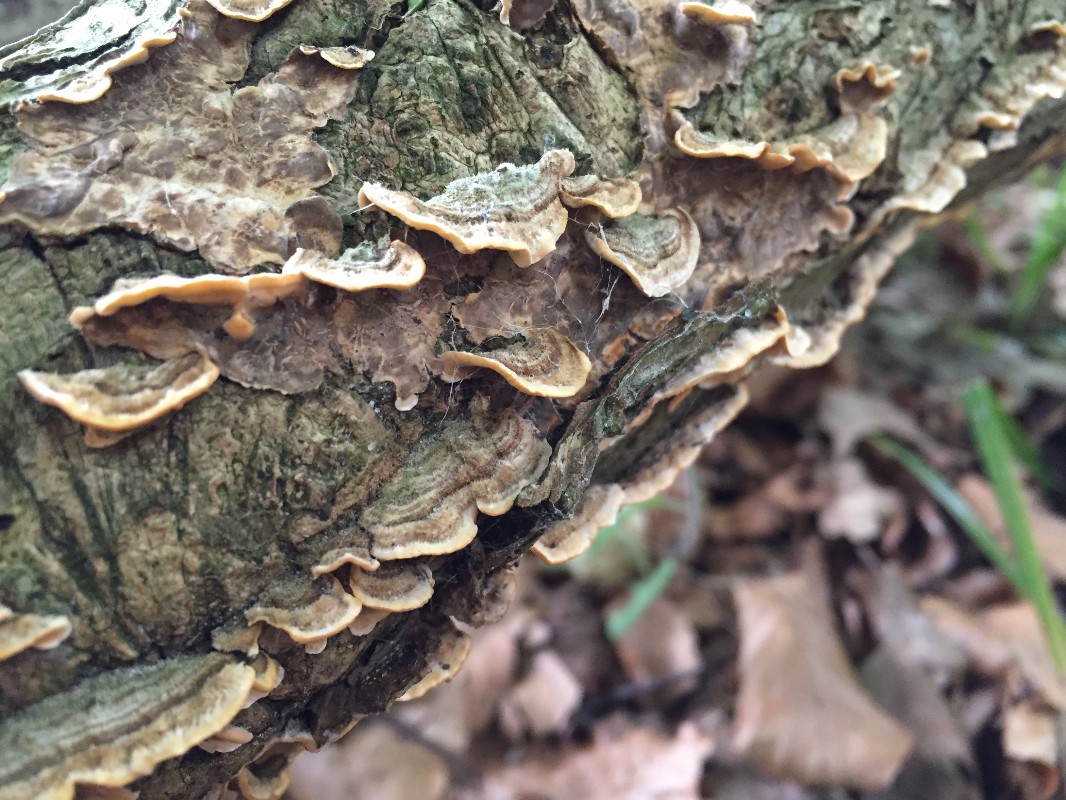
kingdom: Fungi
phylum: Basidiomycota
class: Agaricomycetes
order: Russulales
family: Stereaceae
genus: Stereum
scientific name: Stereum hirsutum
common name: håret lædersvamp
